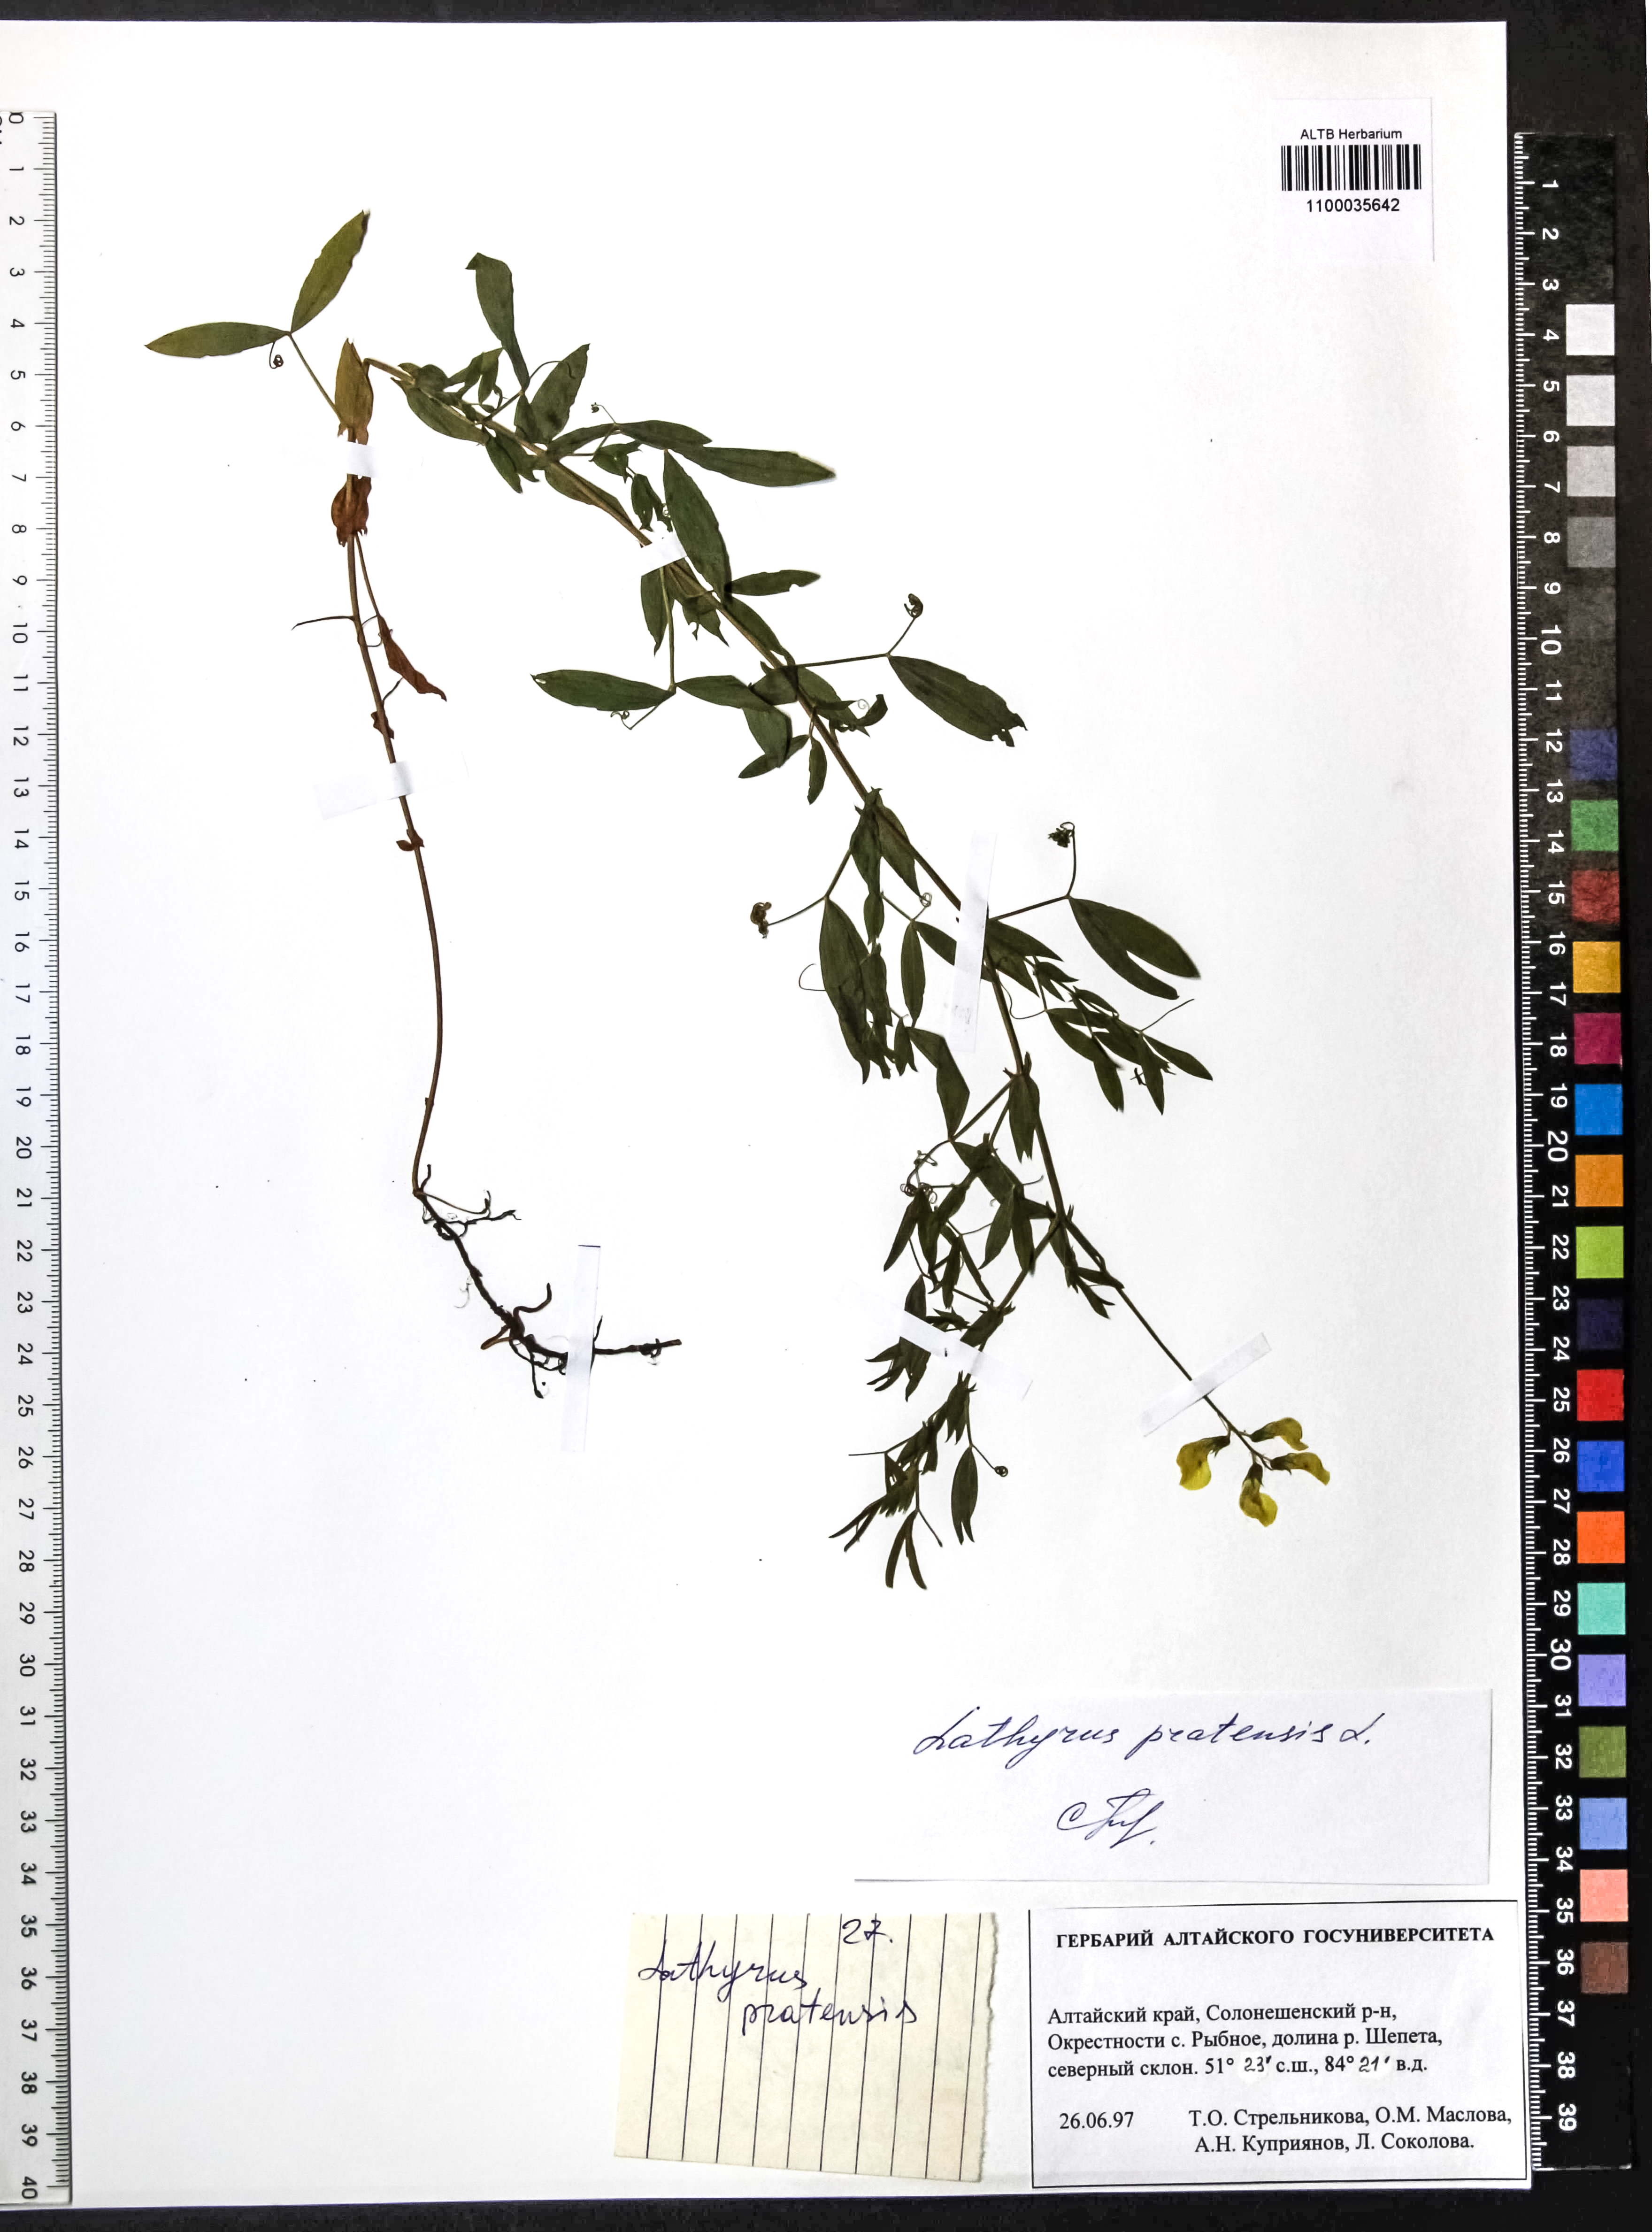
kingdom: Plantae
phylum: Tracheophyta
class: Magnoliopsida
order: Fabales
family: Fabaceae
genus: Lathyrus
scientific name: Lathyrus pratensis
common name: Meadow vetchling
